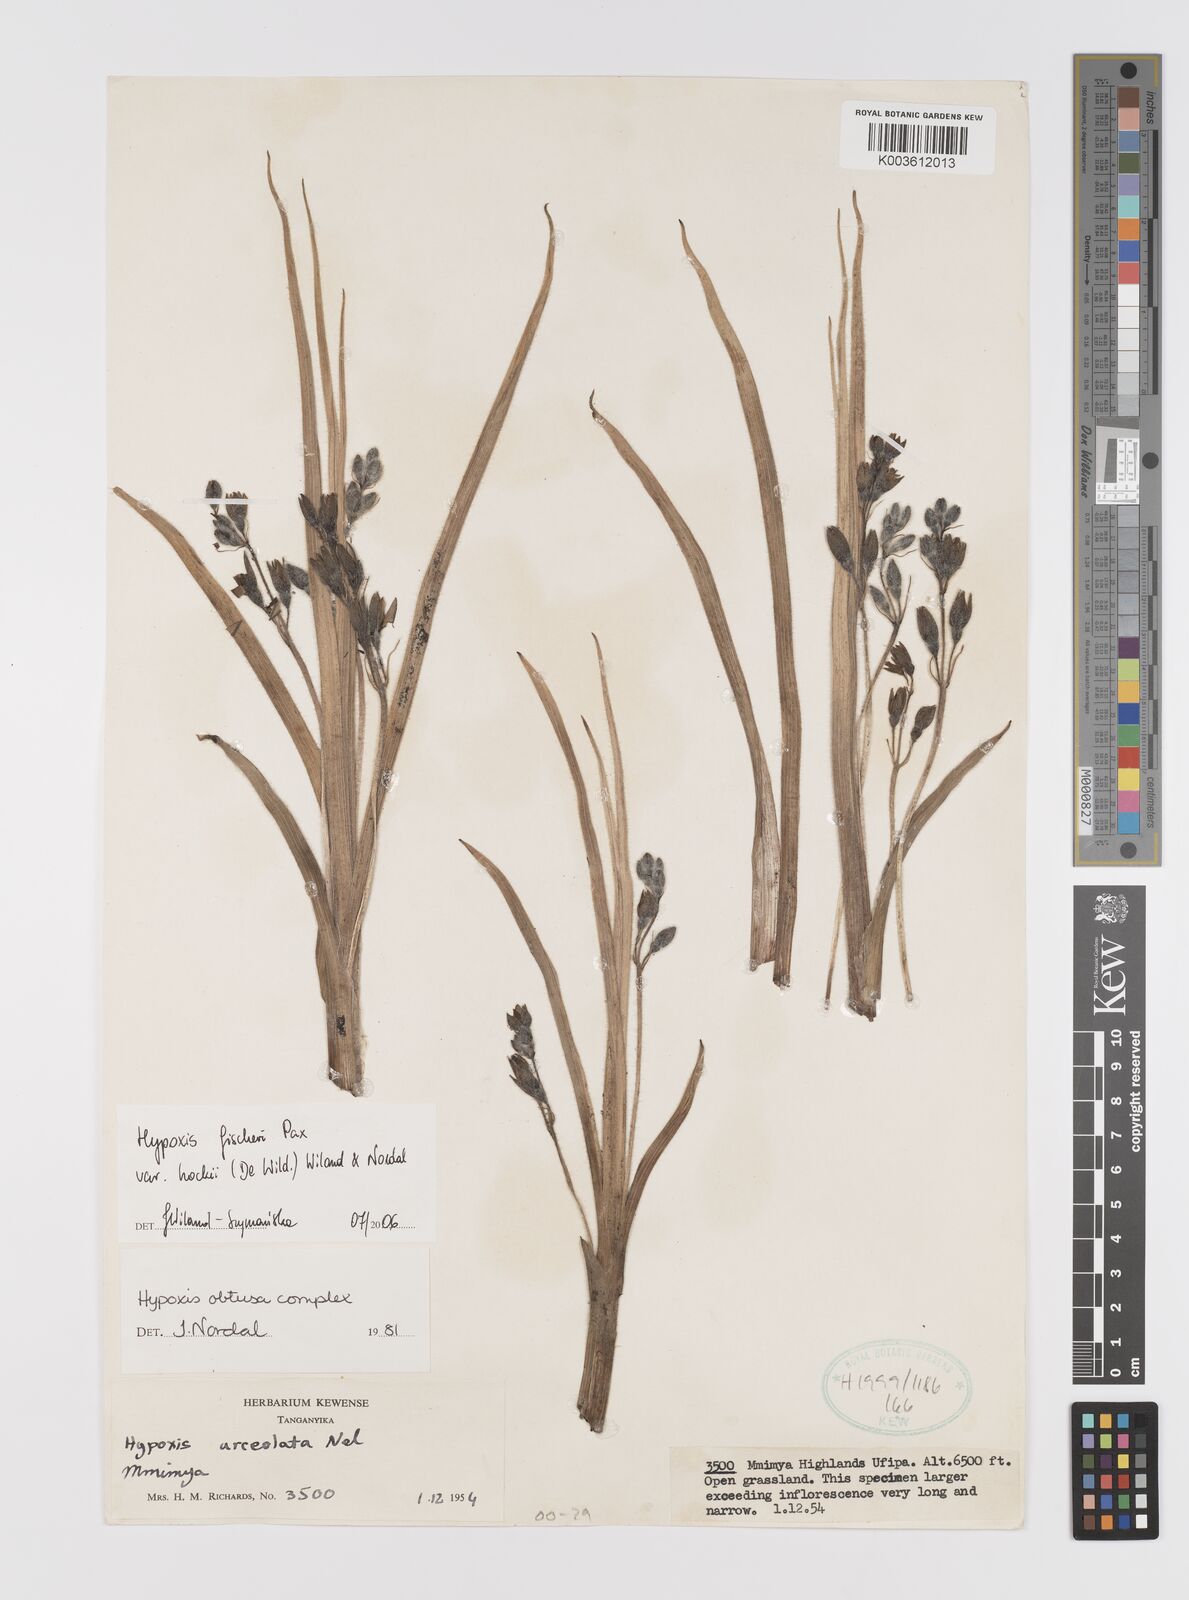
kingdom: Plantae
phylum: Tracheophyta
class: Liliopsida
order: Asparagales
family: Hypoxidaceae
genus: Hypoxis
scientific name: Hypoxis fischeri
